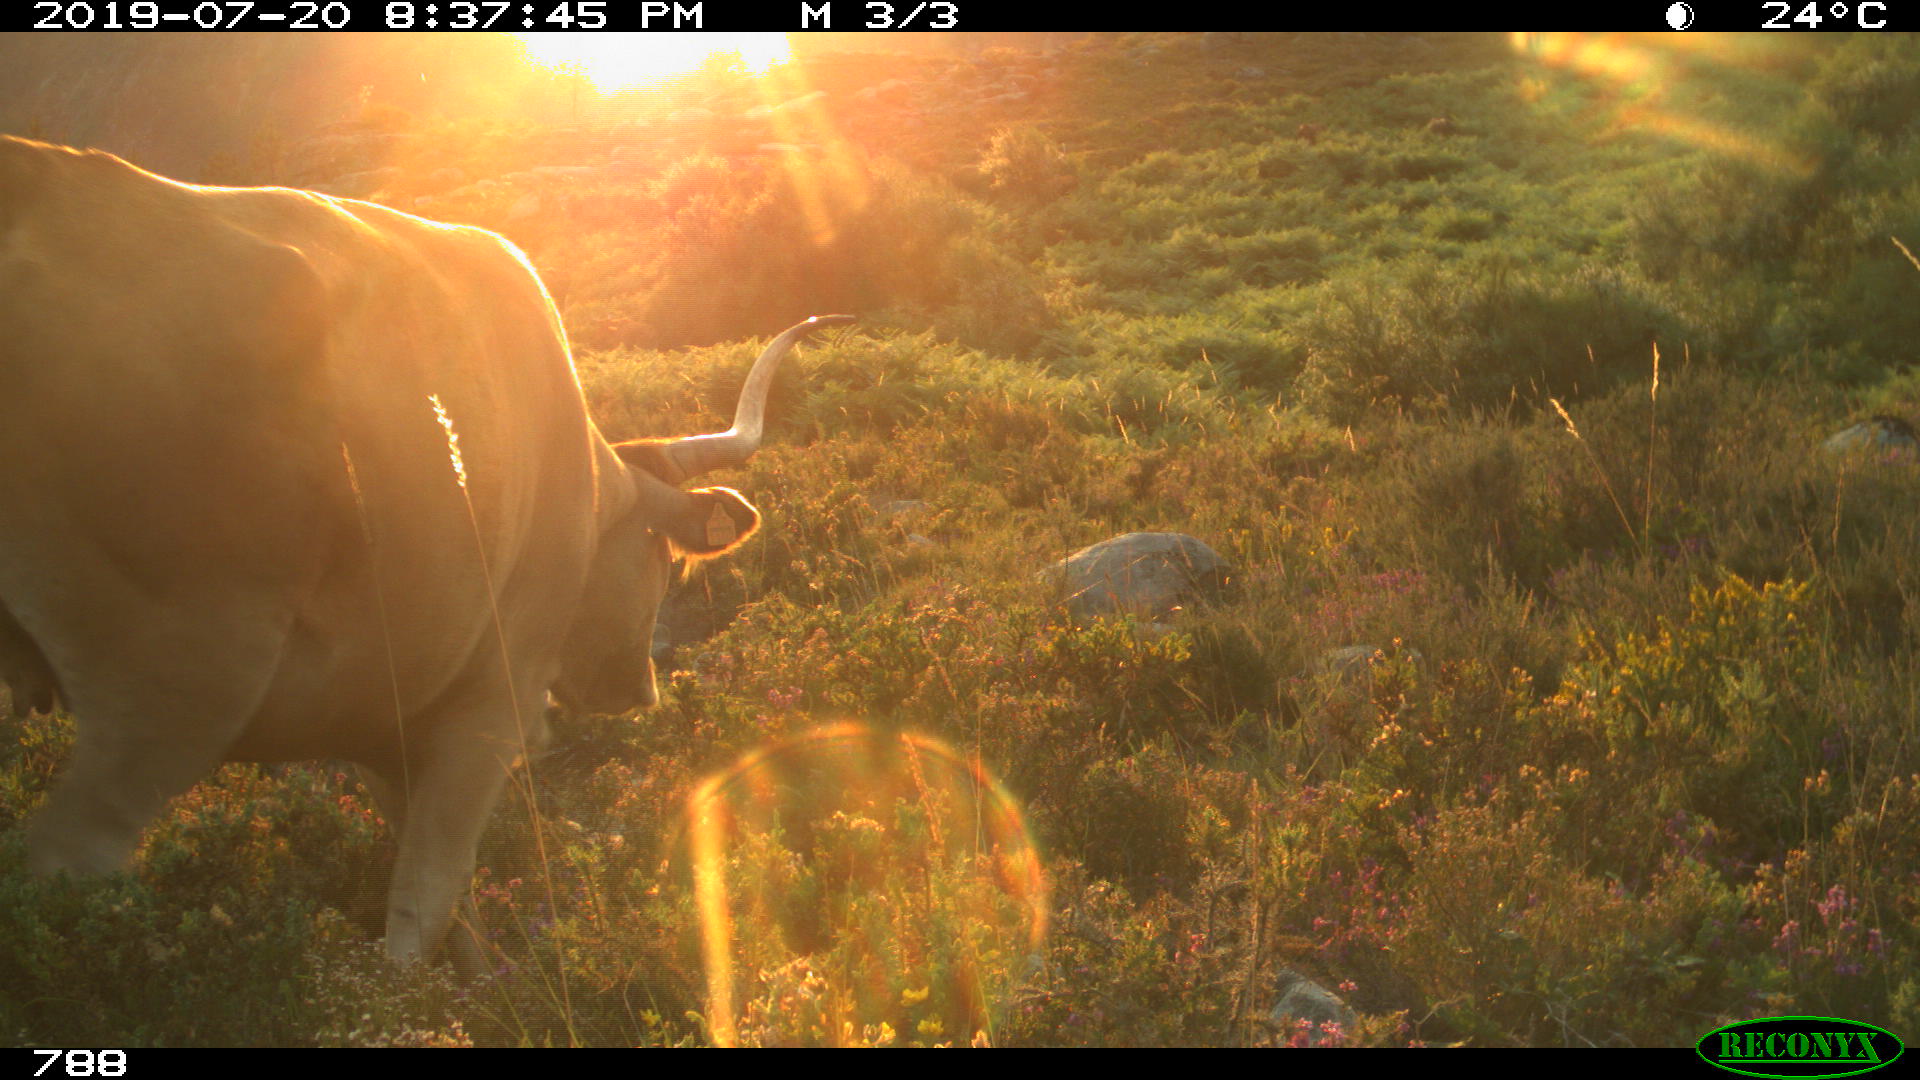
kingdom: Animalia
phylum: Chordata
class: Mammalia
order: Artiodactyla
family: Bovidae
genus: Bos
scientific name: Bos taurus
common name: Domesticated cattle
